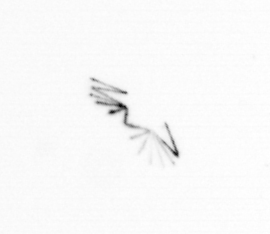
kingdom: Chromista
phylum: Ochrophyta
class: Bacillariophyceae
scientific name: Bacillariophyceae
